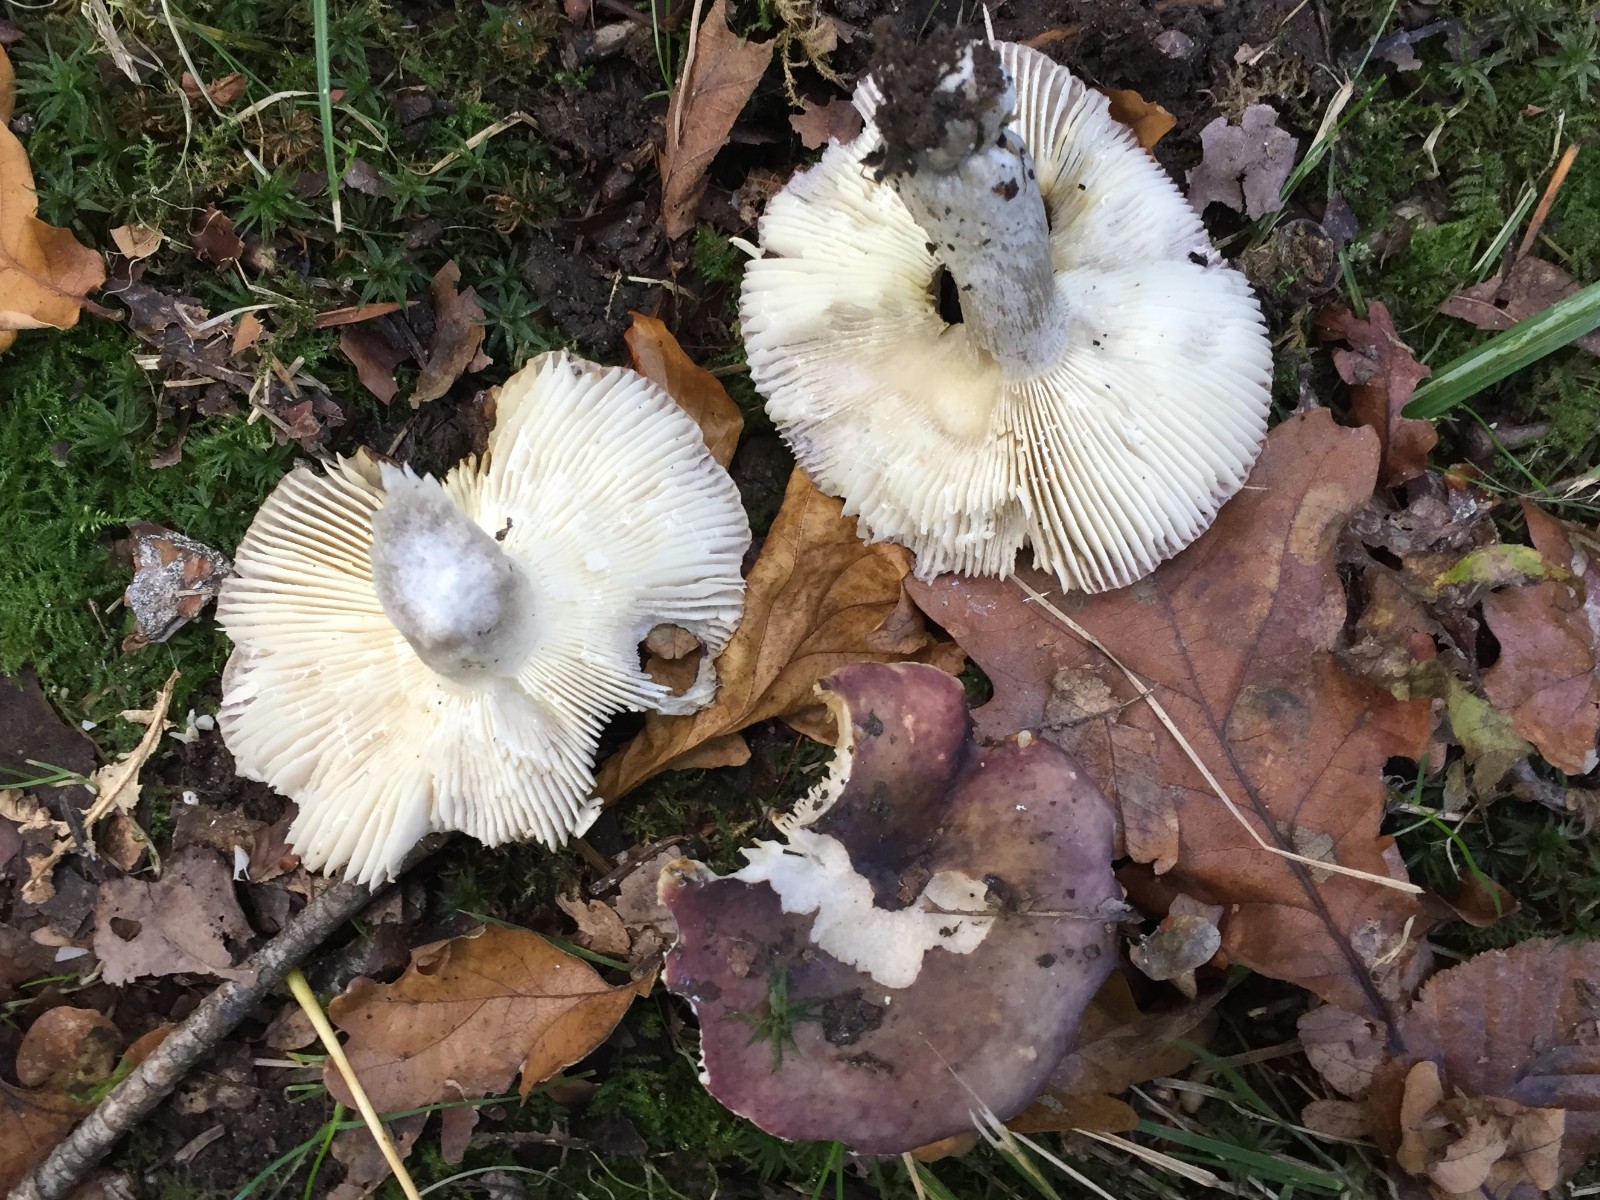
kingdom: Fungi
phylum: Basidiomycota
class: Agaricomycetes
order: Russulales
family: Russulaceae
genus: Russula
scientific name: Russula atropurpurea
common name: purpurbroget skørhat
